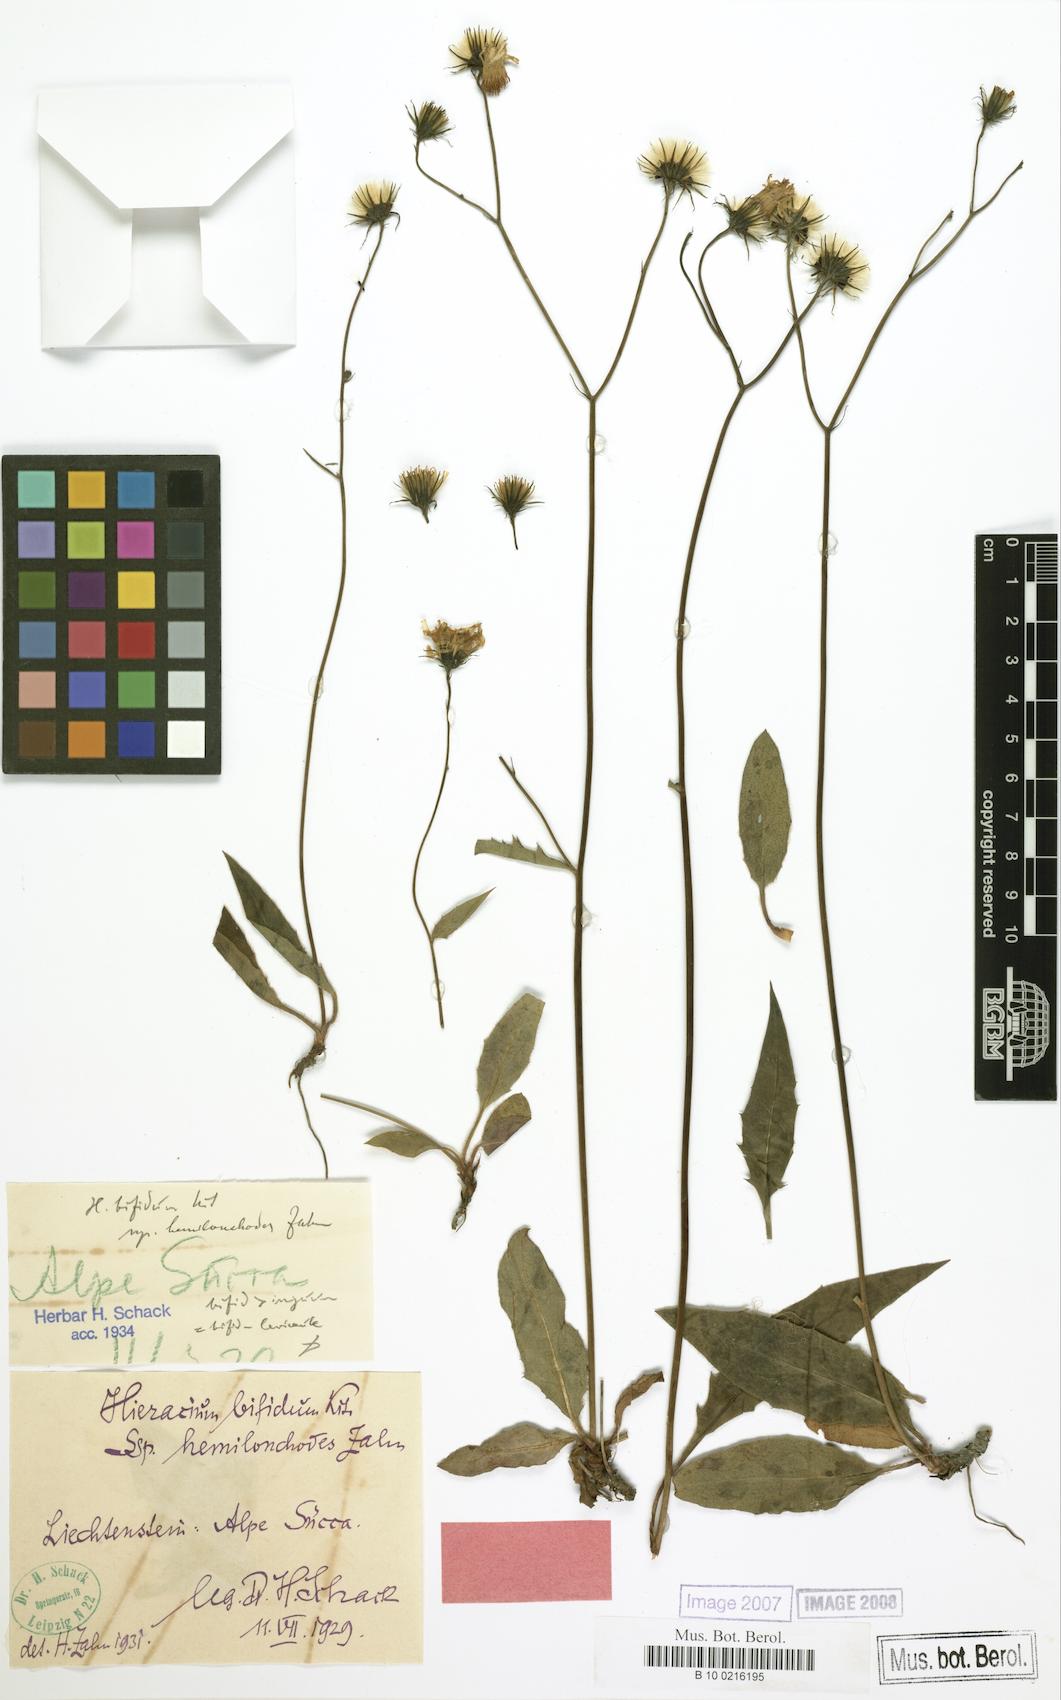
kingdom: Plantae
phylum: Tracheophyta
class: Magnoliopsida
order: Asterales
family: Asteraceae
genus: Hieracium
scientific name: Hieracium bifidum
